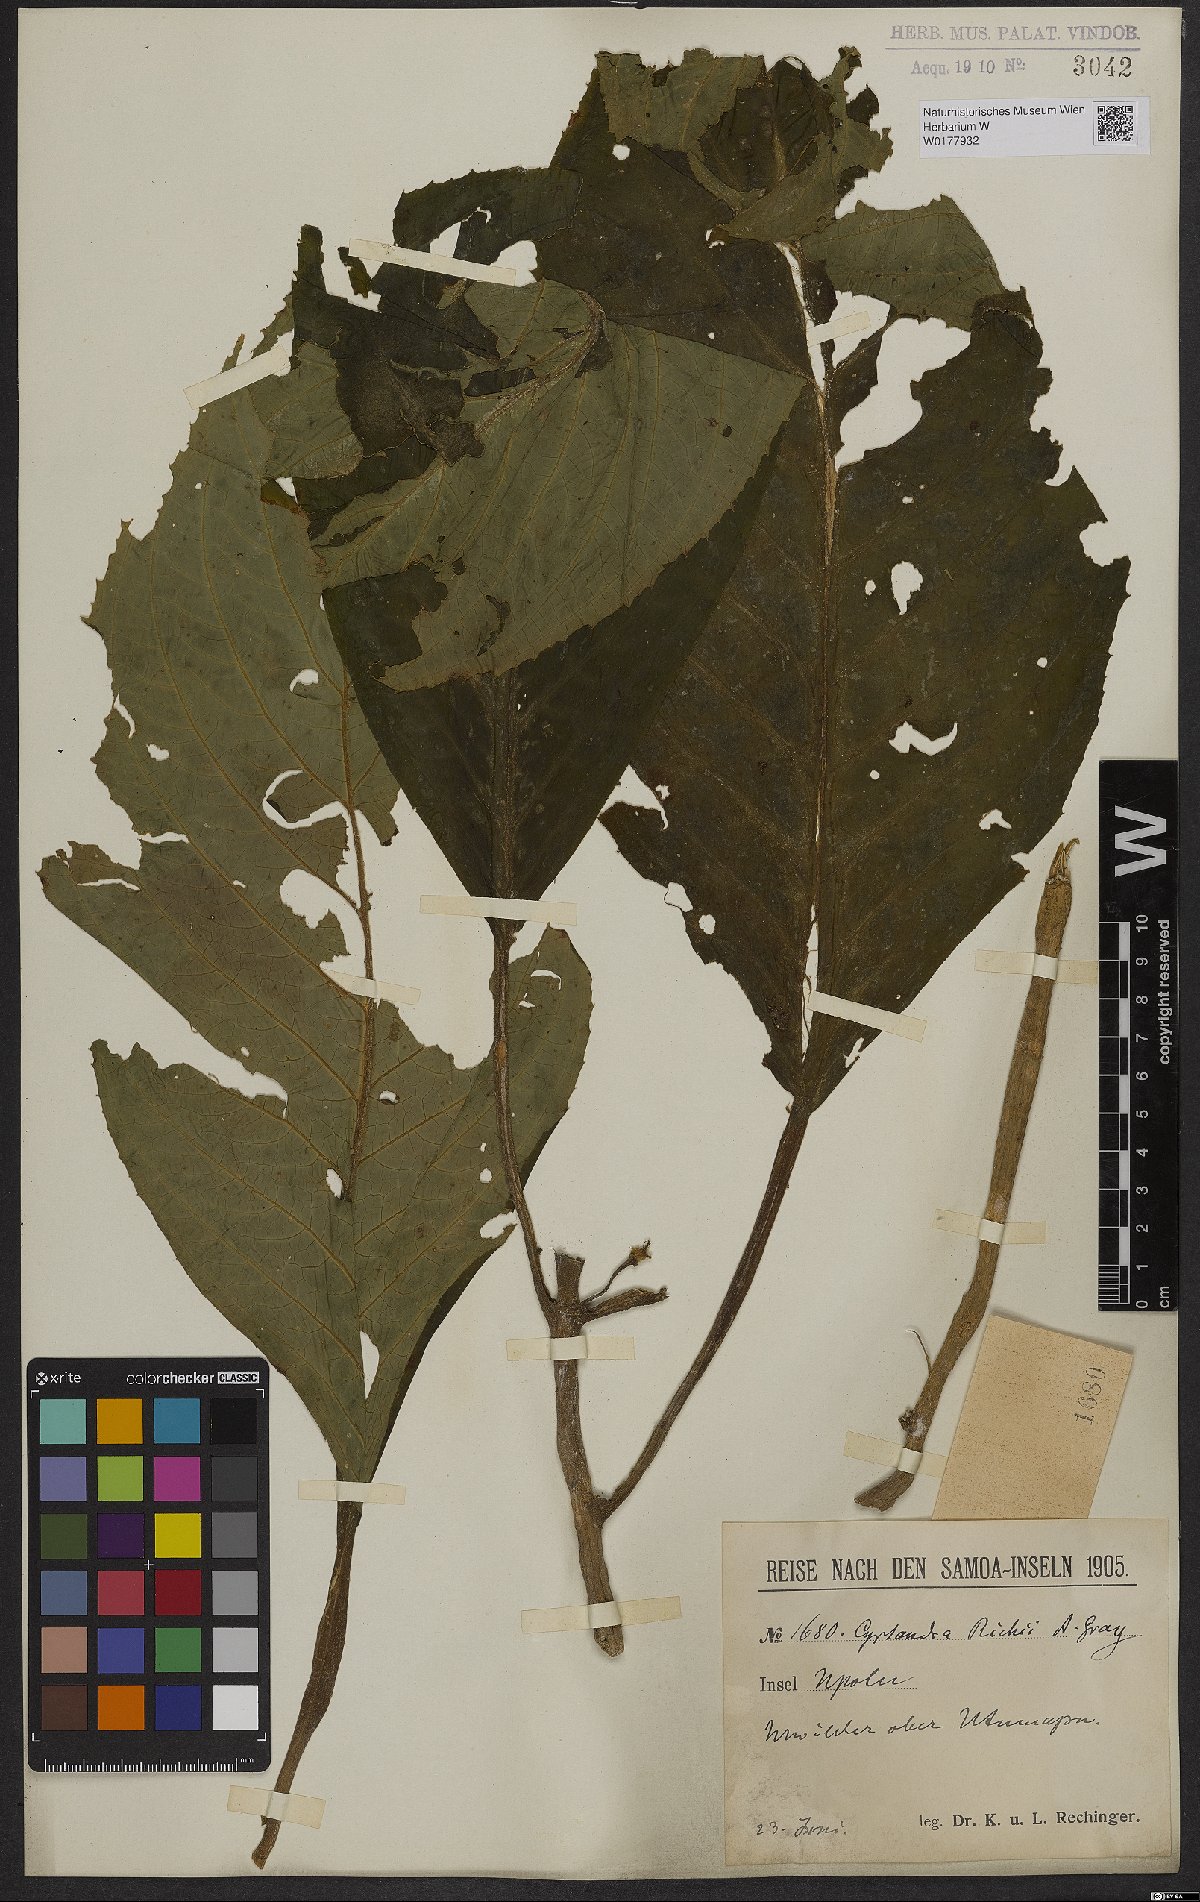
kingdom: Plantae
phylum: Tracheophyta
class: Magnoliopsida
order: Lamiales
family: Gesneriaceae
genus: Cyrtandra
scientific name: Cyrtandra richii
